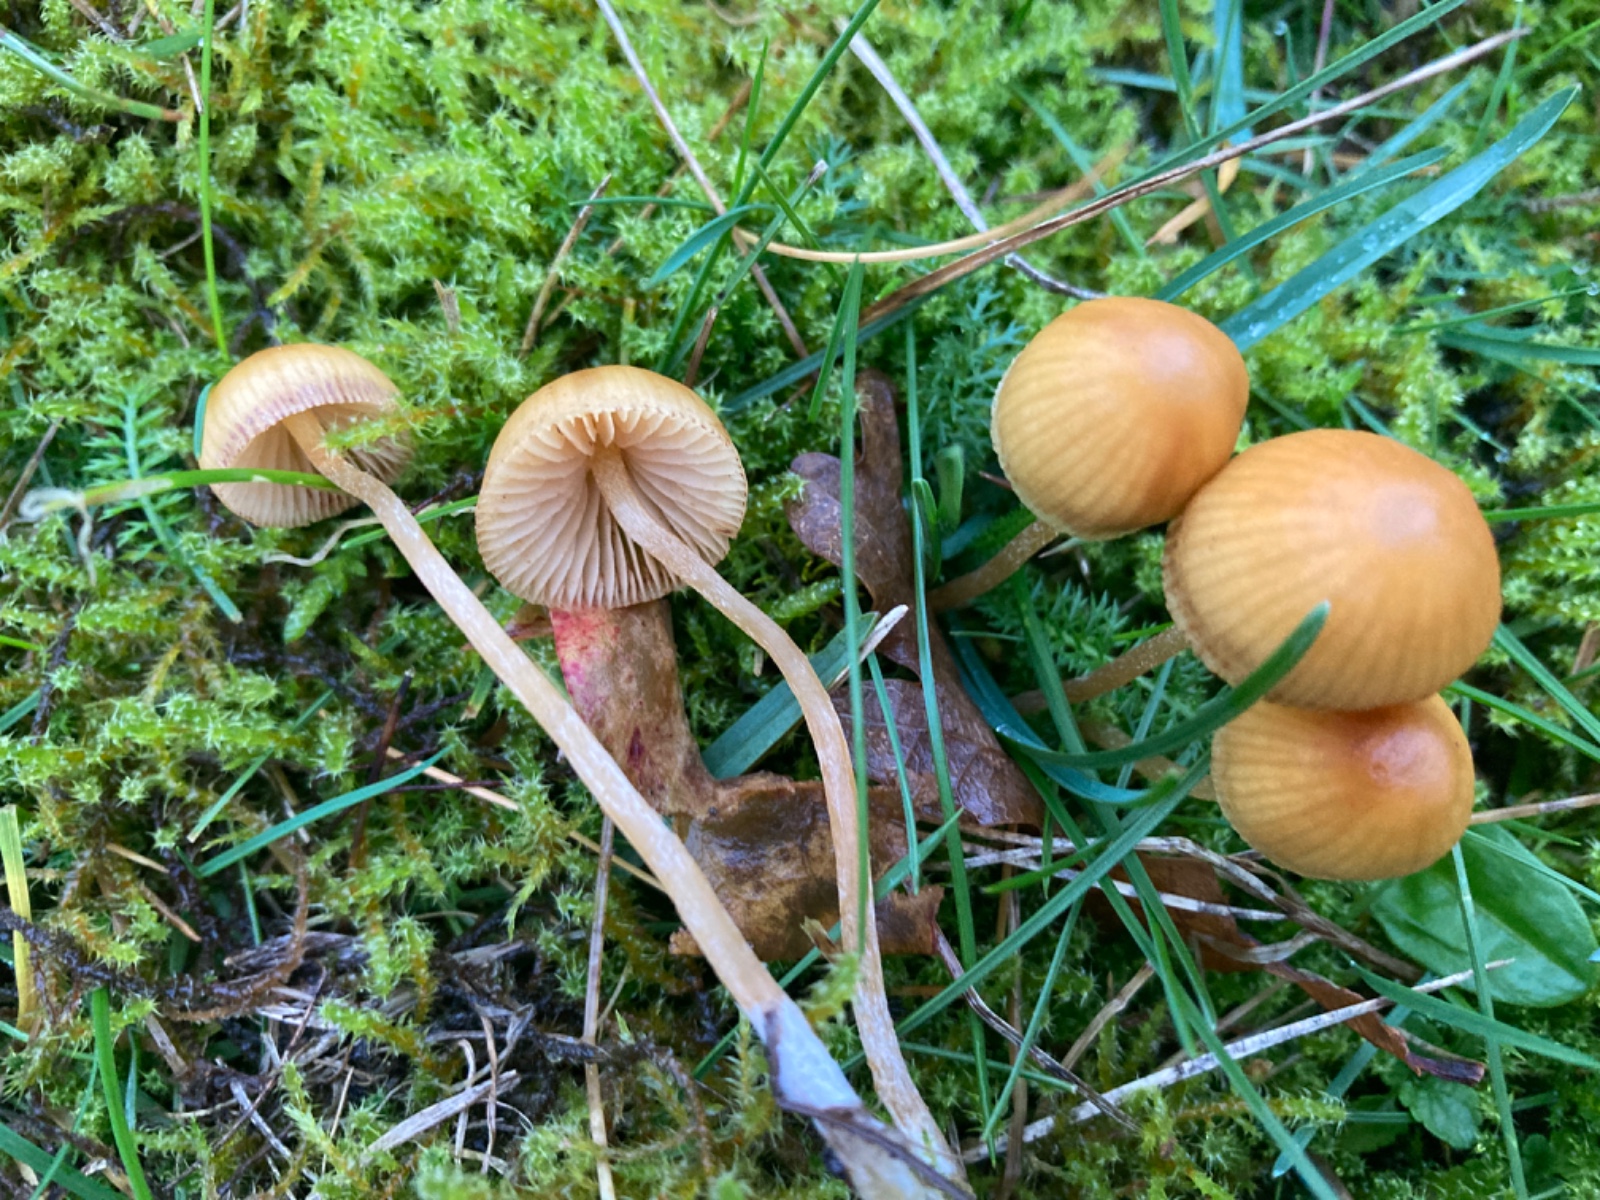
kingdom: Fungi
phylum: Basidiomycota
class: Agaricomycetes
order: Agaricales
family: Hymenogastraceae
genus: Galerina
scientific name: Galerina
